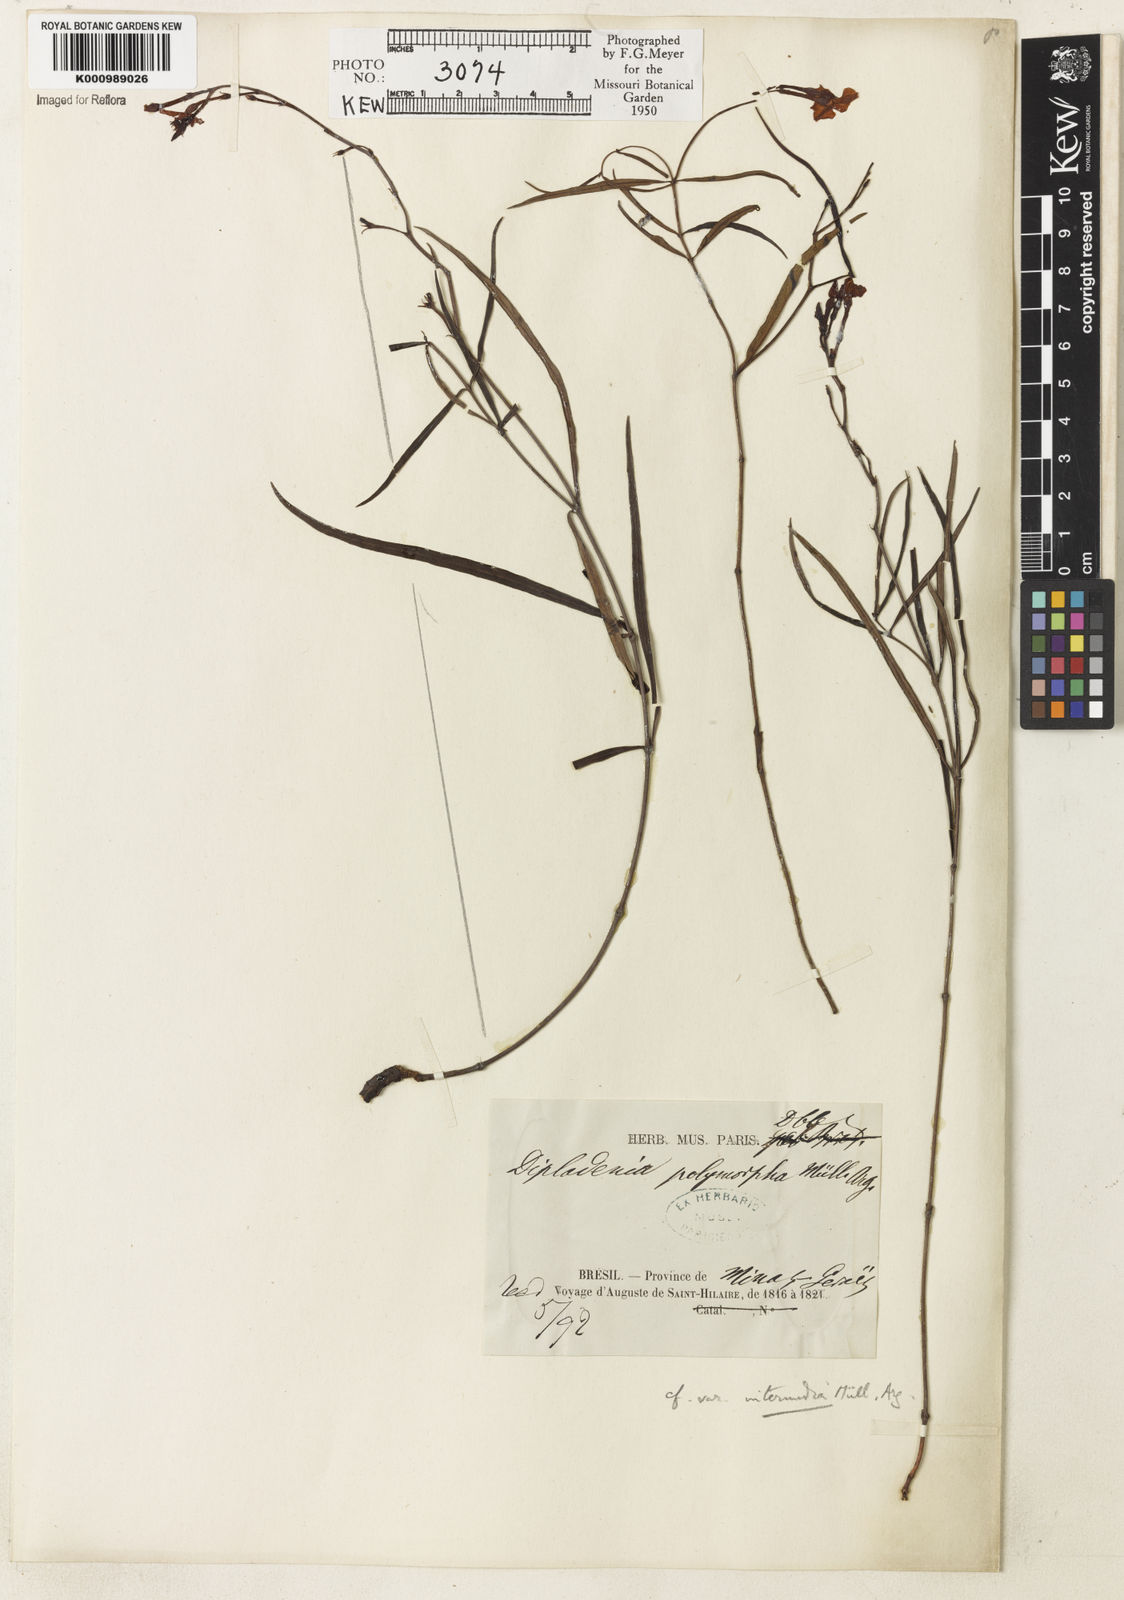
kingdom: Plantae
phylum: Tracheophyta
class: Magnoliopsida
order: Gentianales
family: Apocynaceae
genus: Mandevilla
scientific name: Mandevilla tenuifolia
